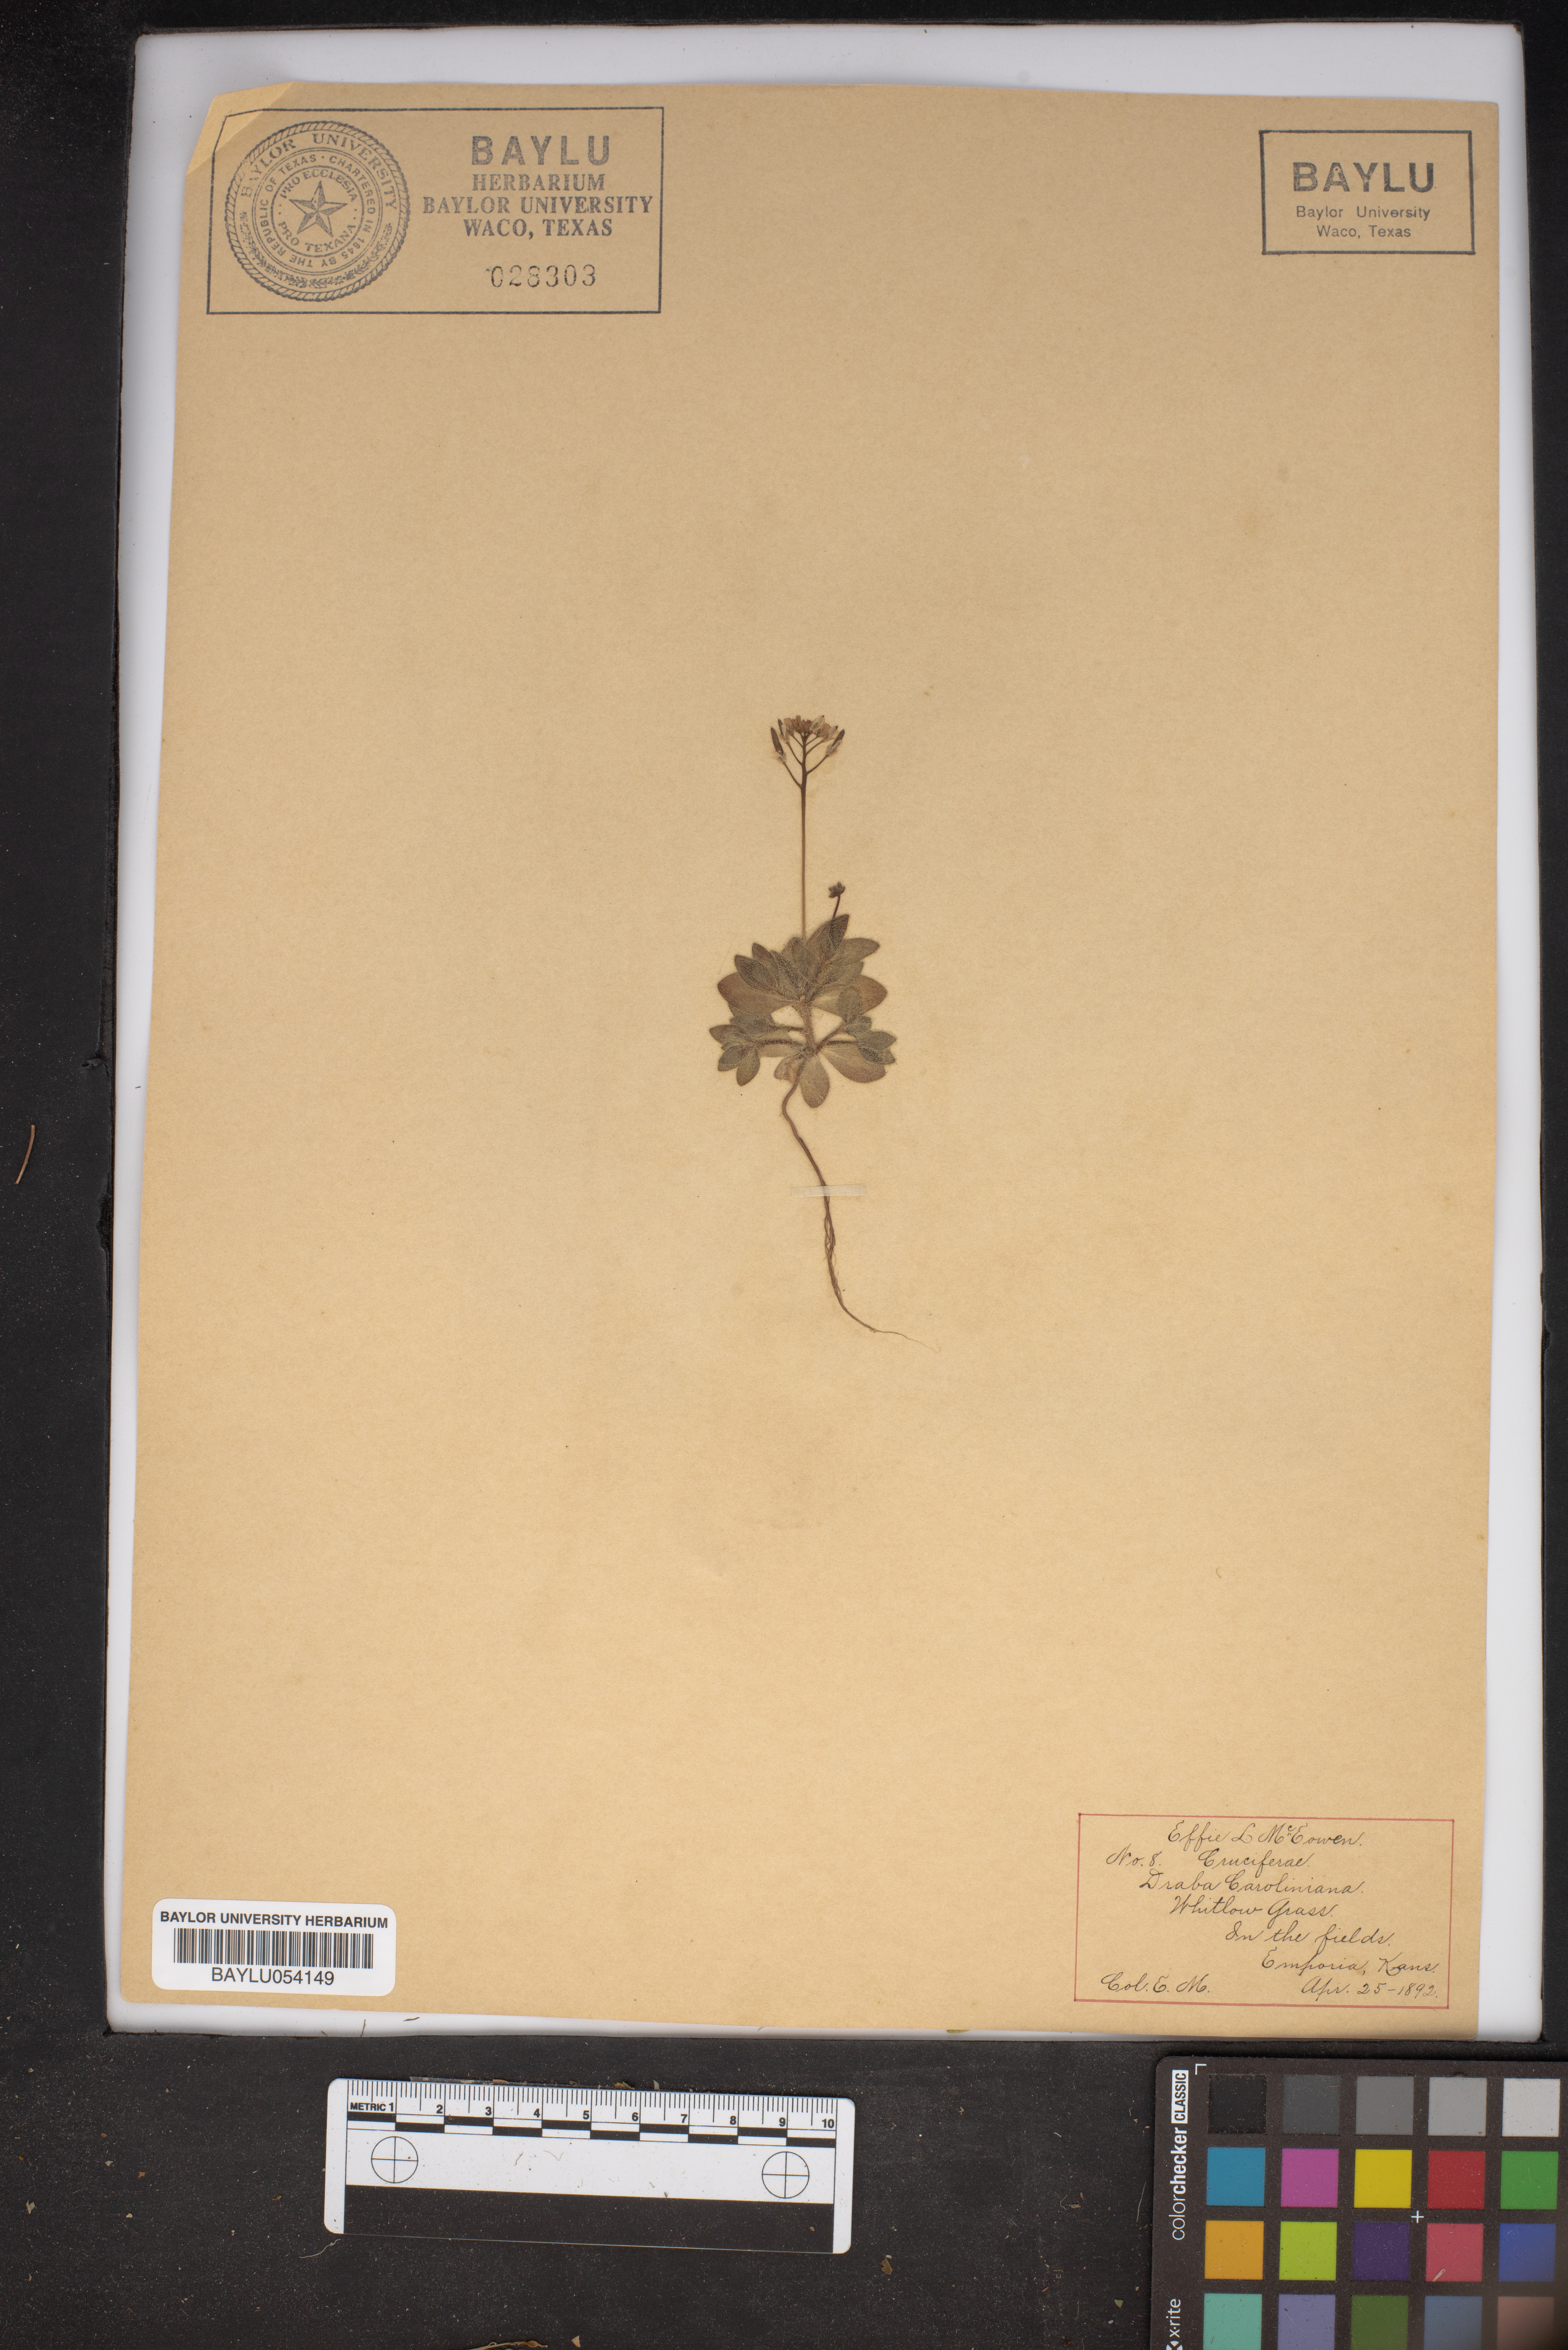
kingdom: Plantae
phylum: Tracheophyta
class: Magnoliopsida
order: Brassicales
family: Brassicaceae
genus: Tomostima
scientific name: Tomostima reptans
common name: Carolina draba
